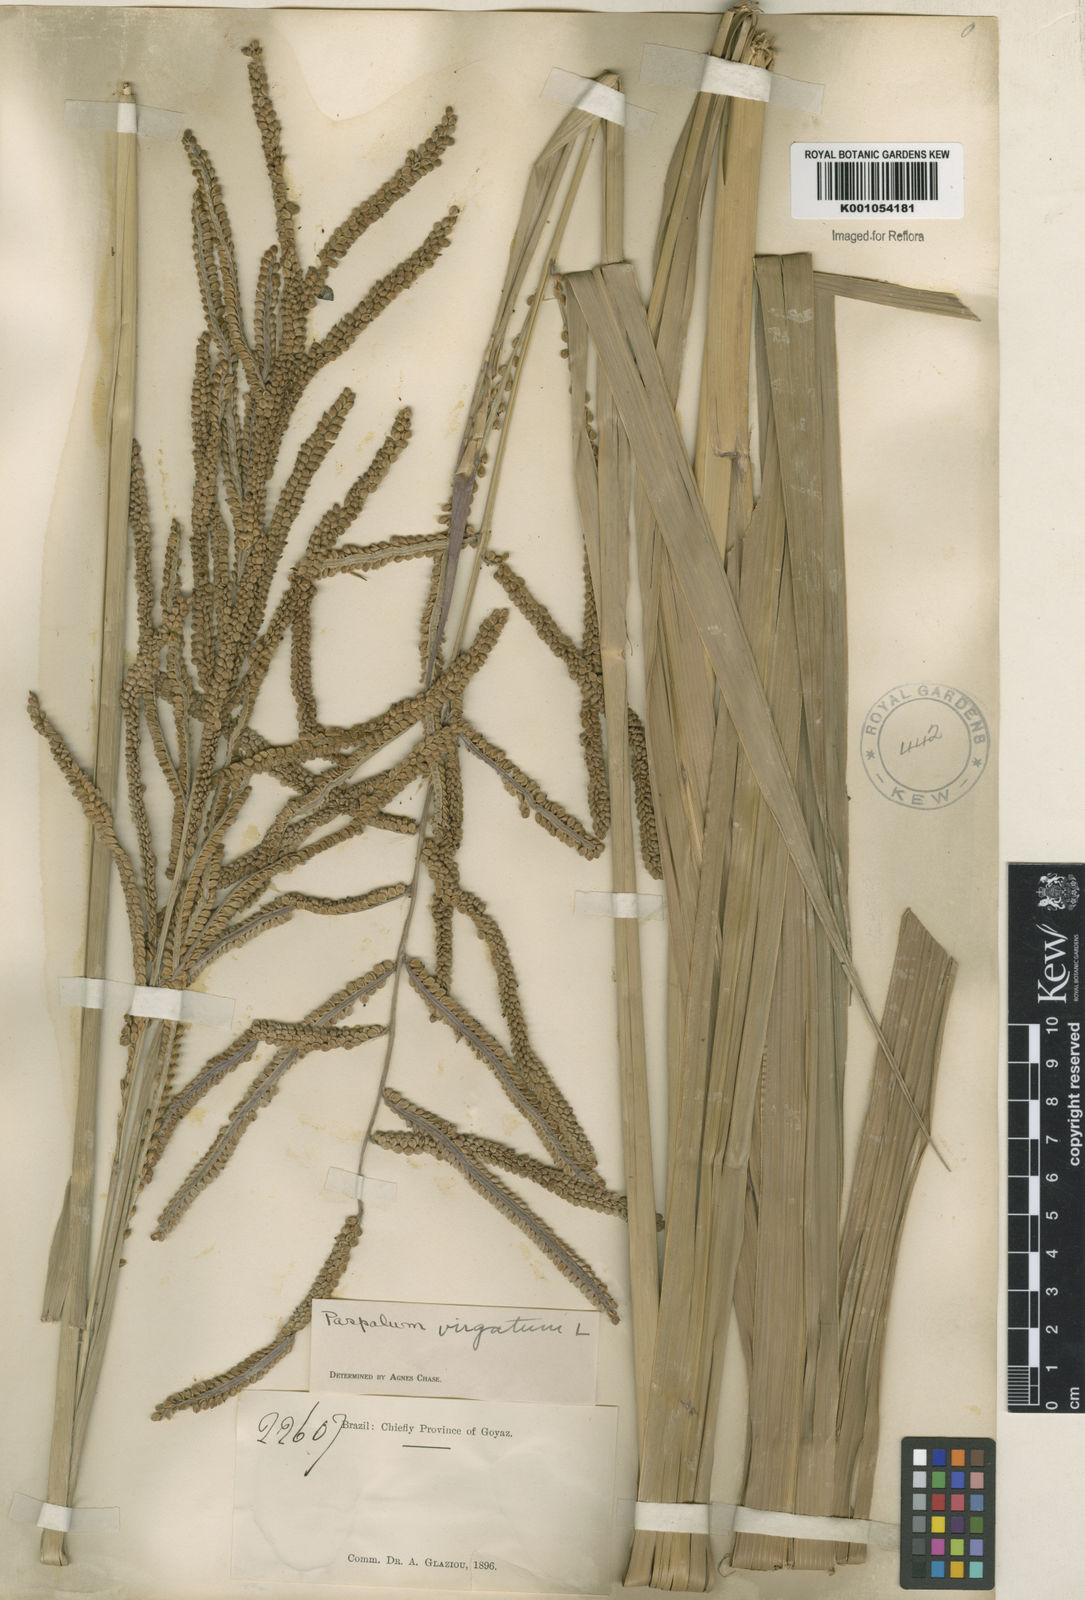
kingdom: Plantae
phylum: Tracheophyta
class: Liliopsida
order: Poales
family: Poaceae
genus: Paspalum
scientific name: Paspalum virgatum
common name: Talquezal
